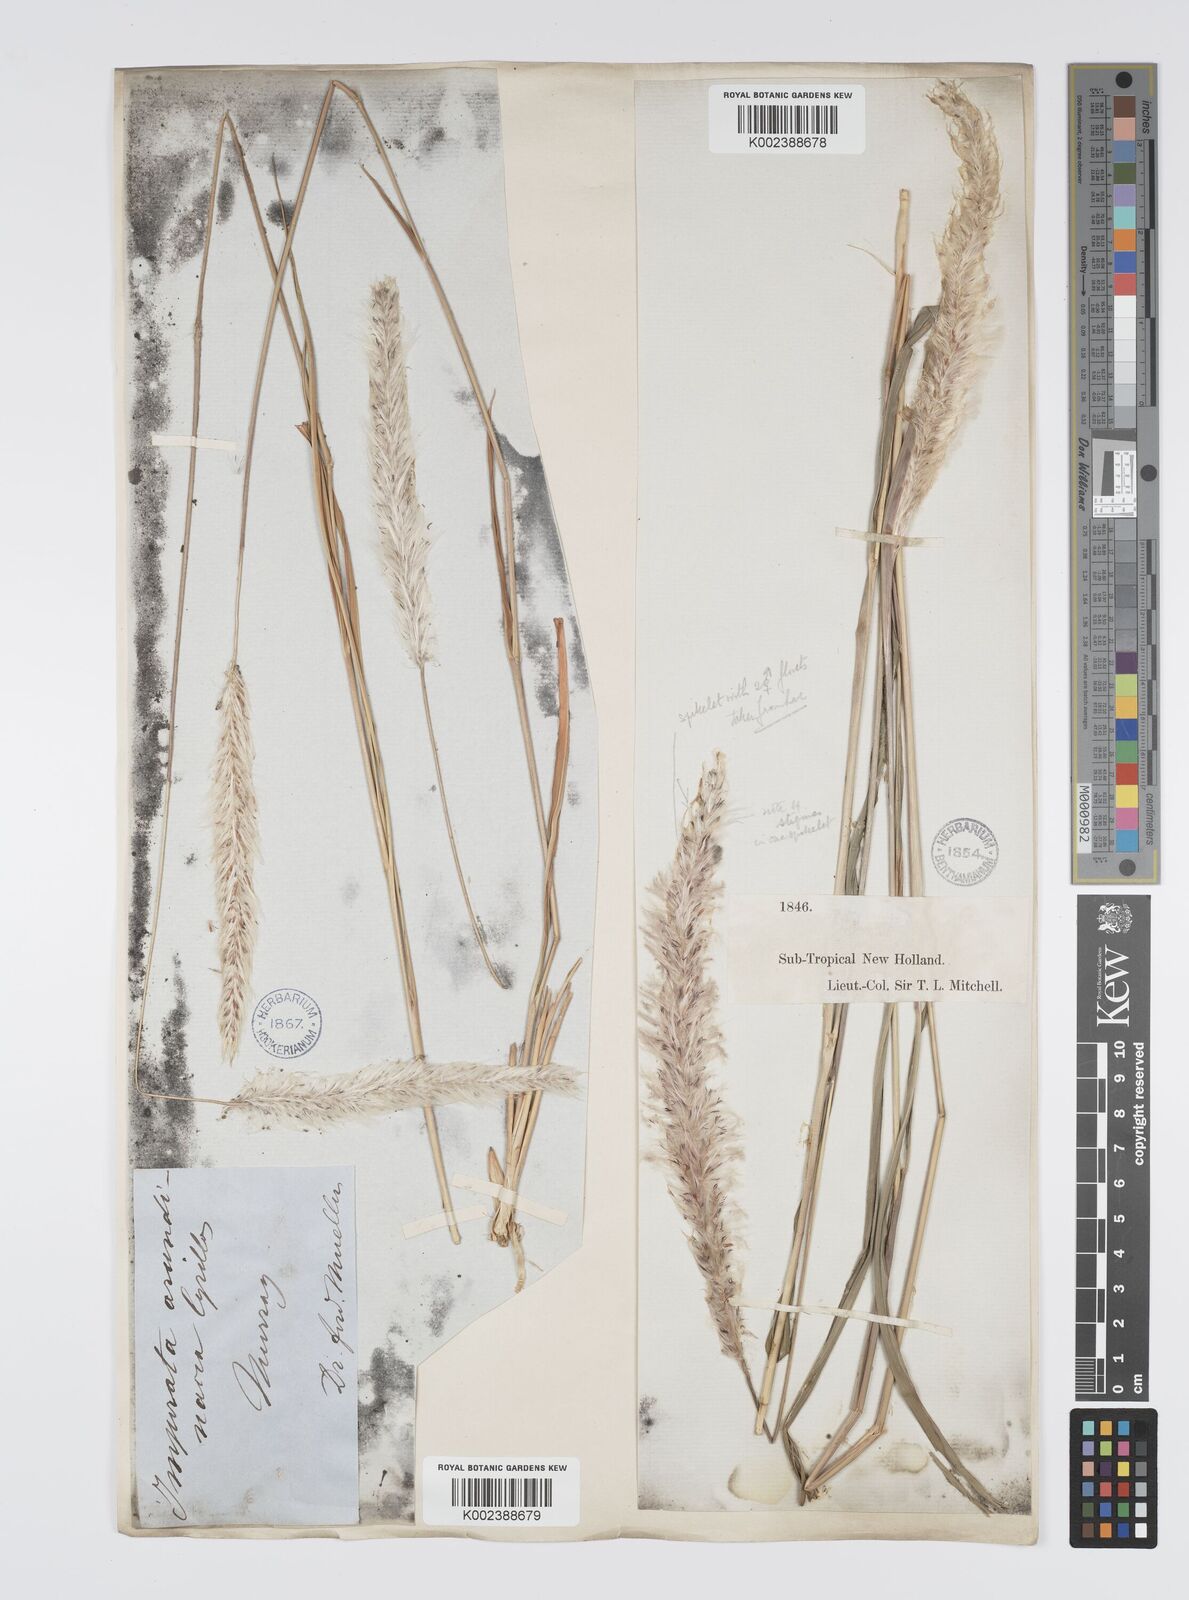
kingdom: Plantae
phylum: Tracheophyta
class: Liliopsida
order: Poales
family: Poaceae
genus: Imperata
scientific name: Imperata cylindrica
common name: Cogongrass
